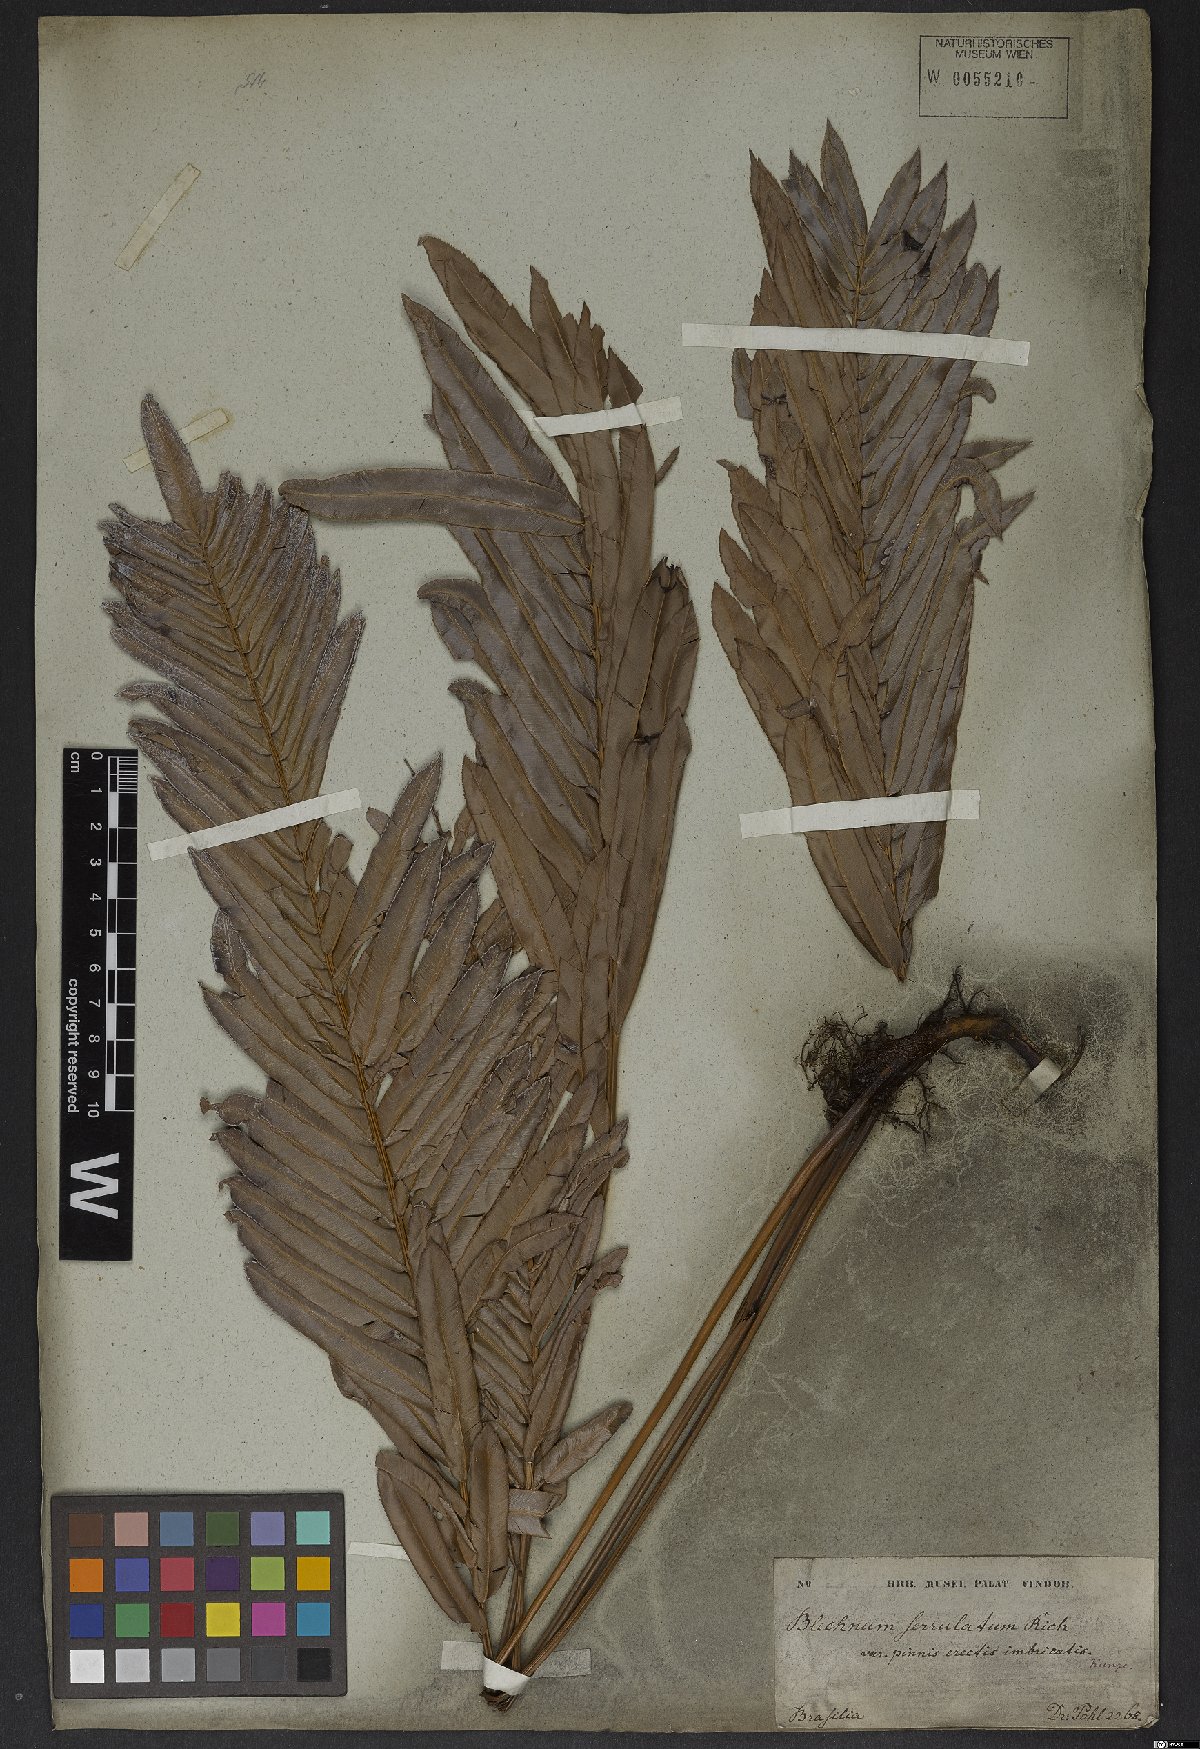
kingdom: Plantae
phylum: Tracheophyta
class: Polypodiopsida
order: Polypodiales
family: Blechnaceae
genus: Telmatoblechnum
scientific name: Telmatoblechnum serrulatum
